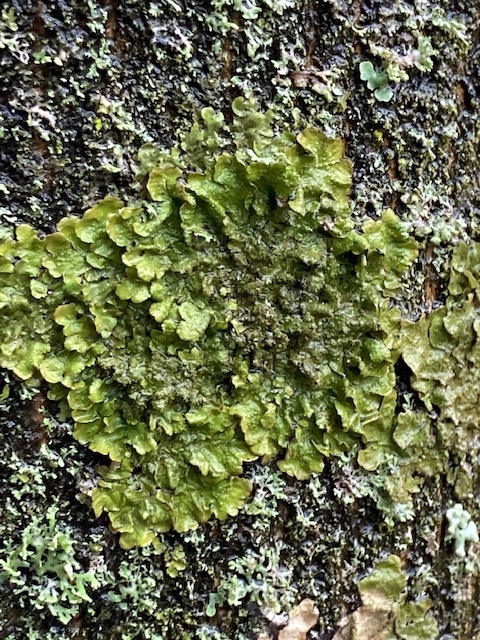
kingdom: Fungi
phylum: Ascomycota
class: Lecanoromycetes
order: Lecanorales
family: Parmeliaceae
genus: Melanelixia
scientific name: Melanelixia glabratula
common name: glinsende skållav
